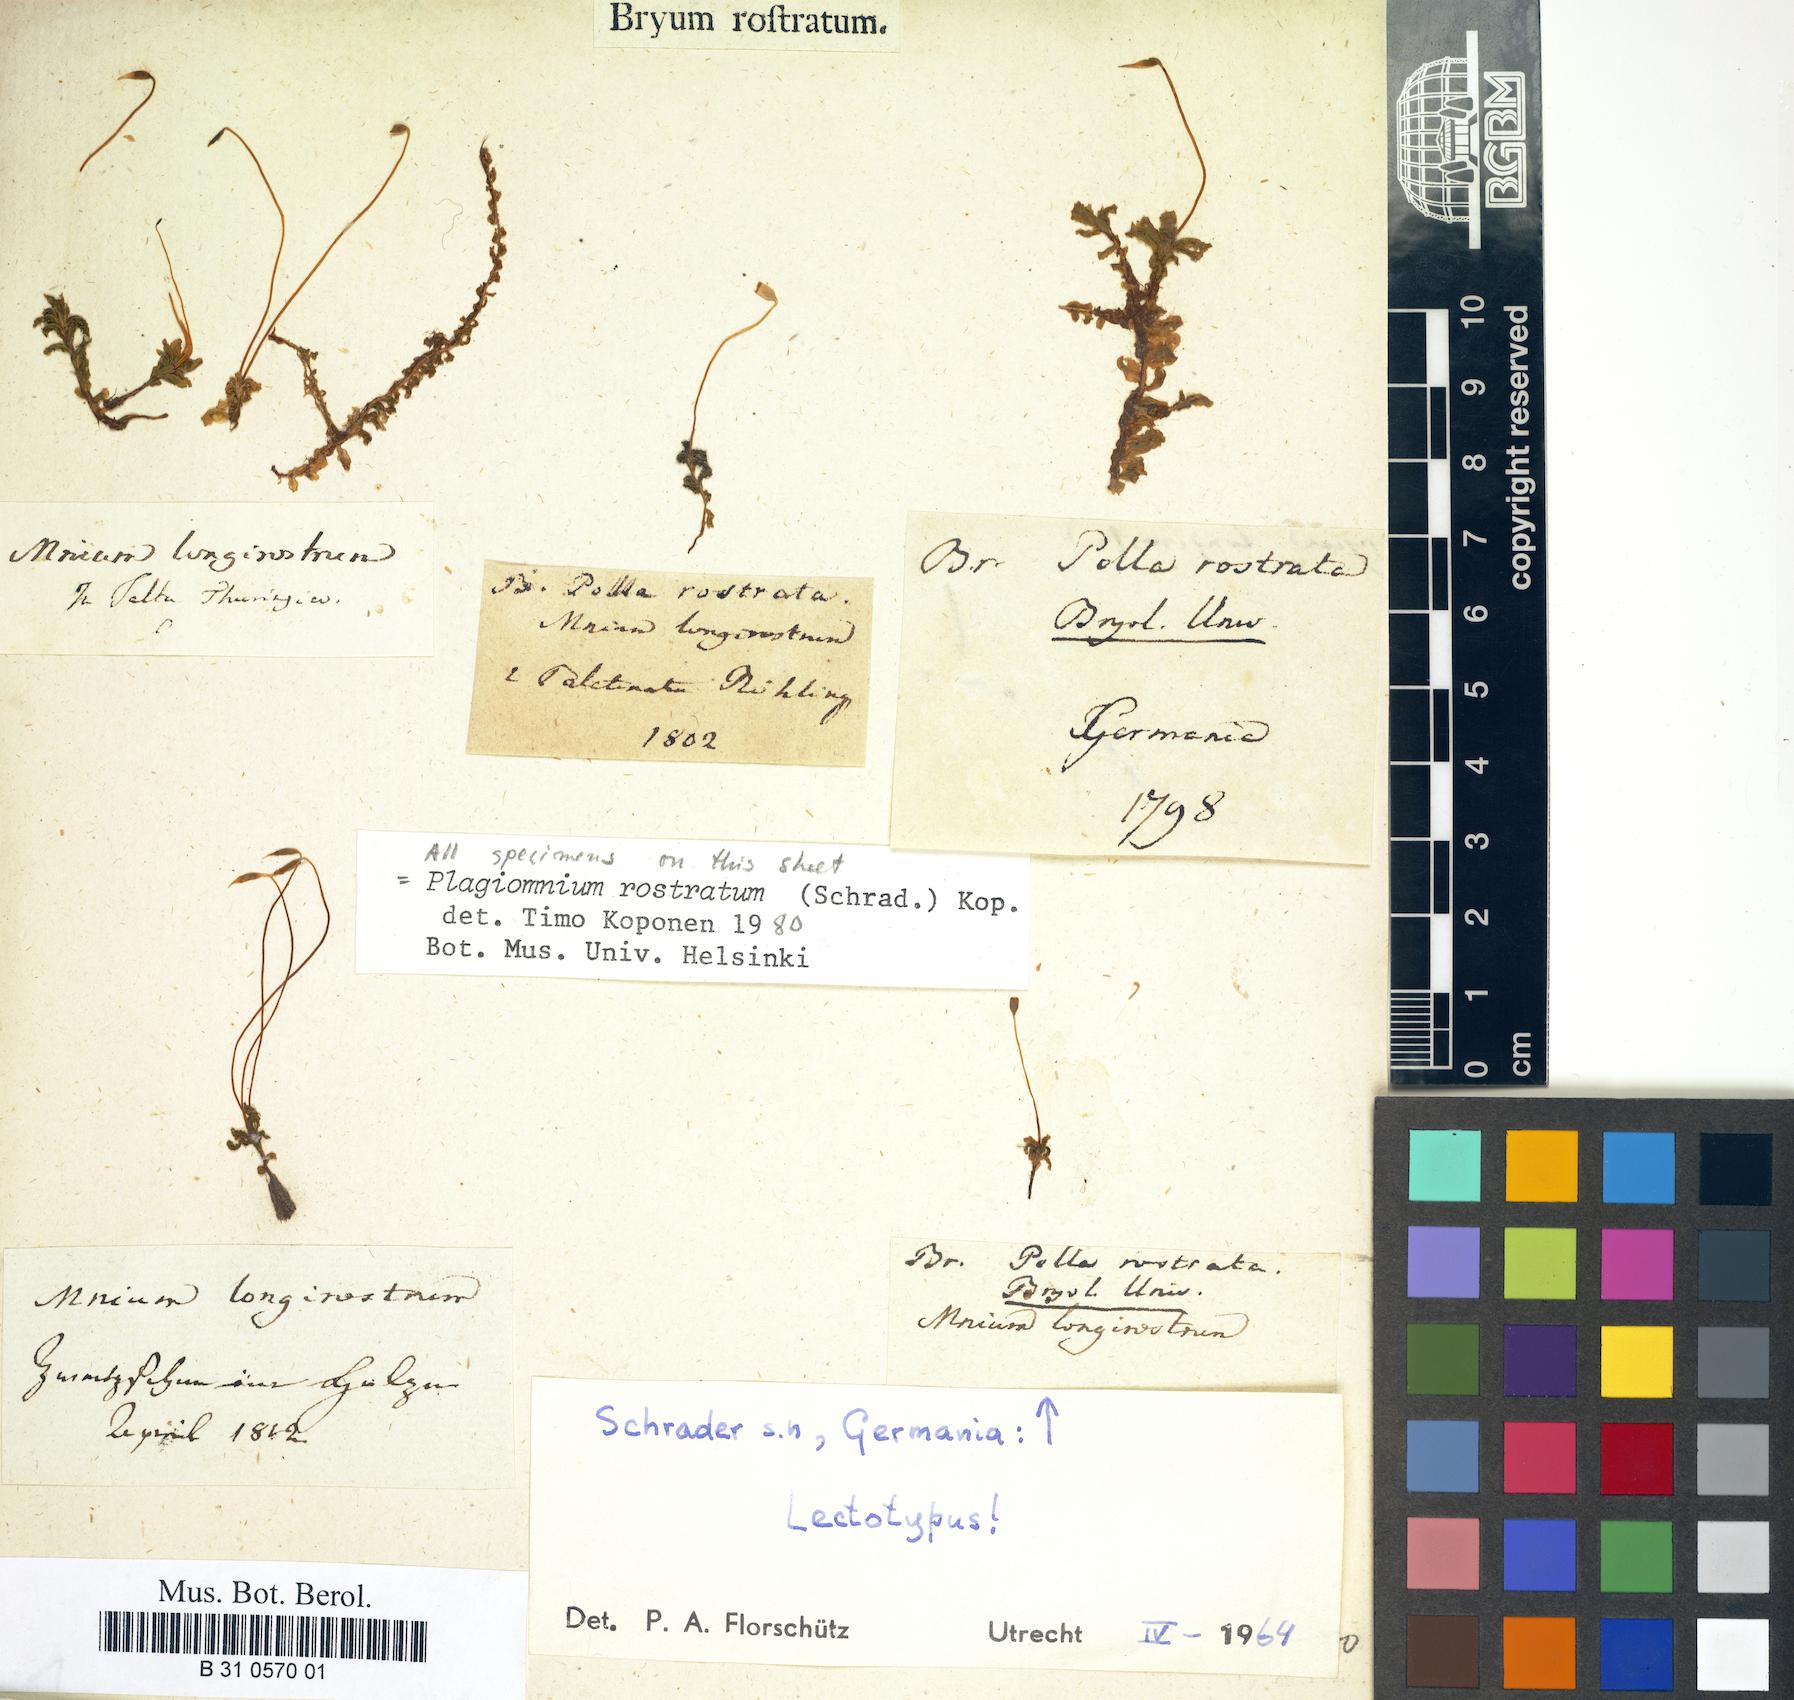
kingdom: Plantae
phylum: Bryophyta
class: Bryopsida
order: Bryales
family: Mniaceae
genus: Plagiomnium
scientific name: Plagiomnium rostratum
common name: Long-beaked leafy moss
